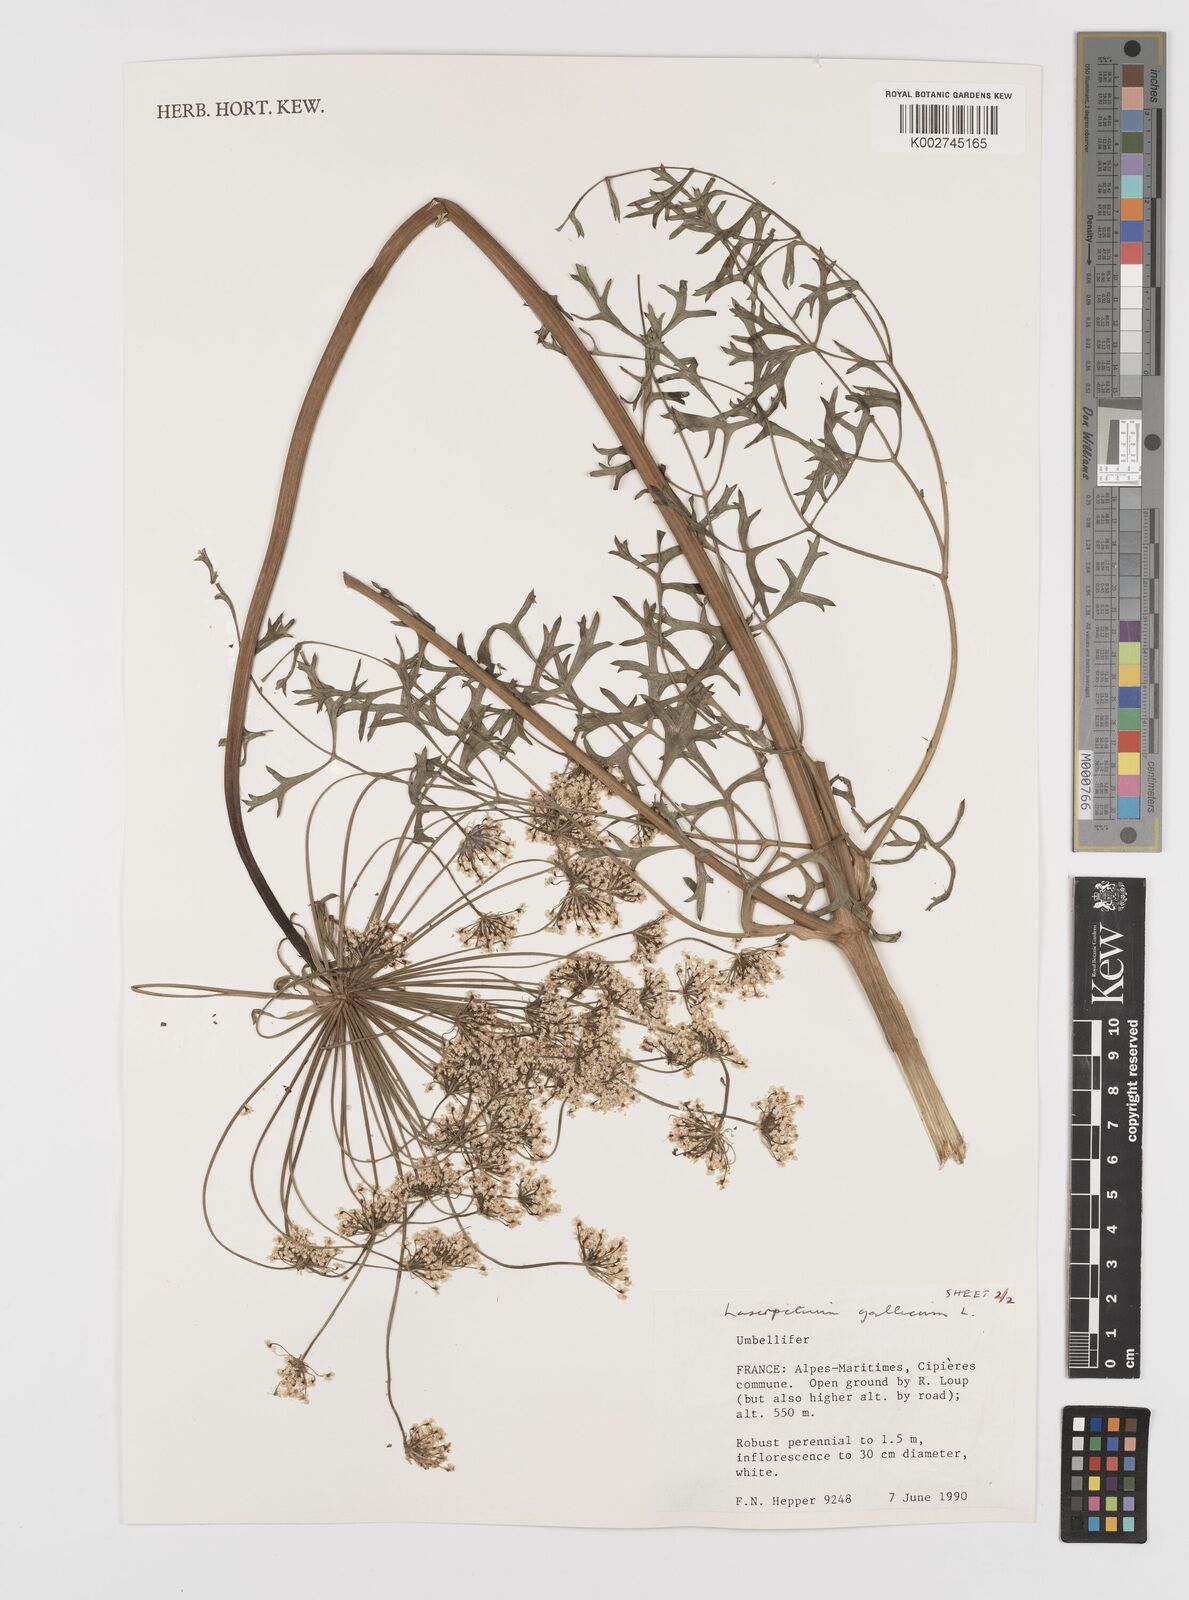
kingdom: Plantae
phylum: Tracheophyta
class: Magnoliopsida
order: Apiales
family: Apiaceae
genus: Laserpitium
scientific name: Laserpitium gallicum
